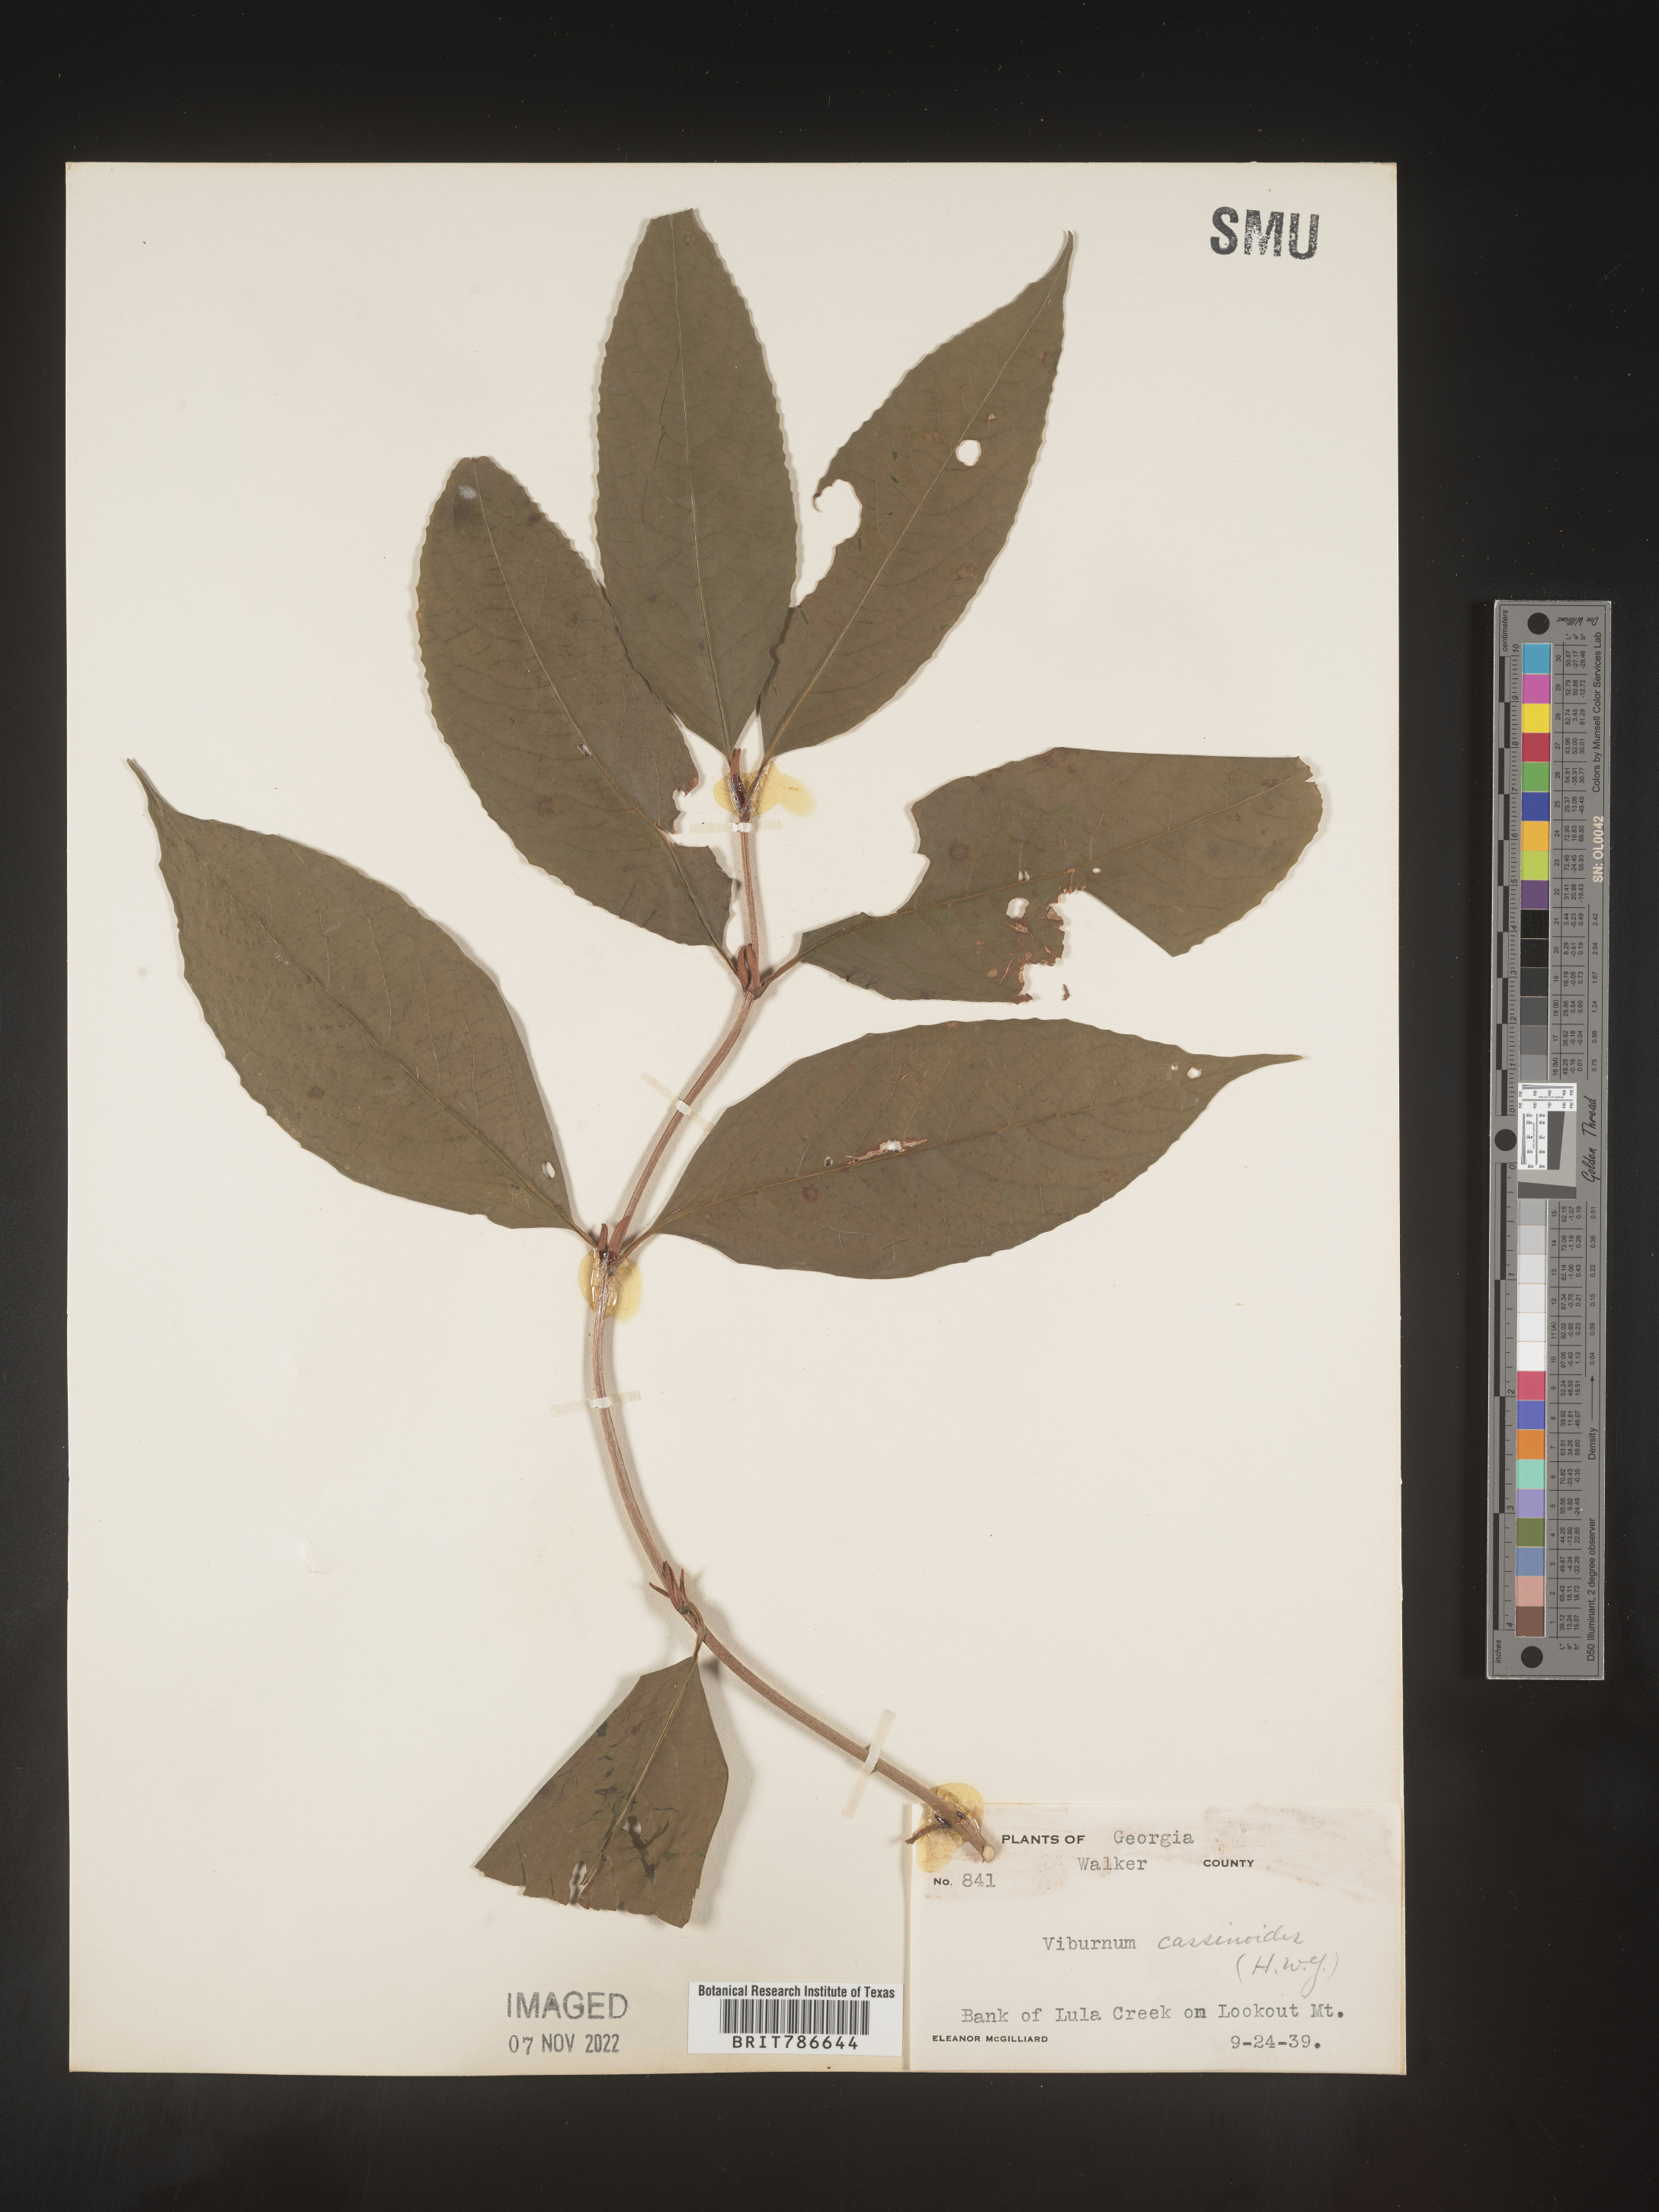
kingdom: Plantae
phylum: Tracheophyta
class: Magnoliopsida
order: Dipsacales
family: Viburnaceae
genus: Viburnum
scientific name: Viburnum cassinoides
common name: Swamp haw
